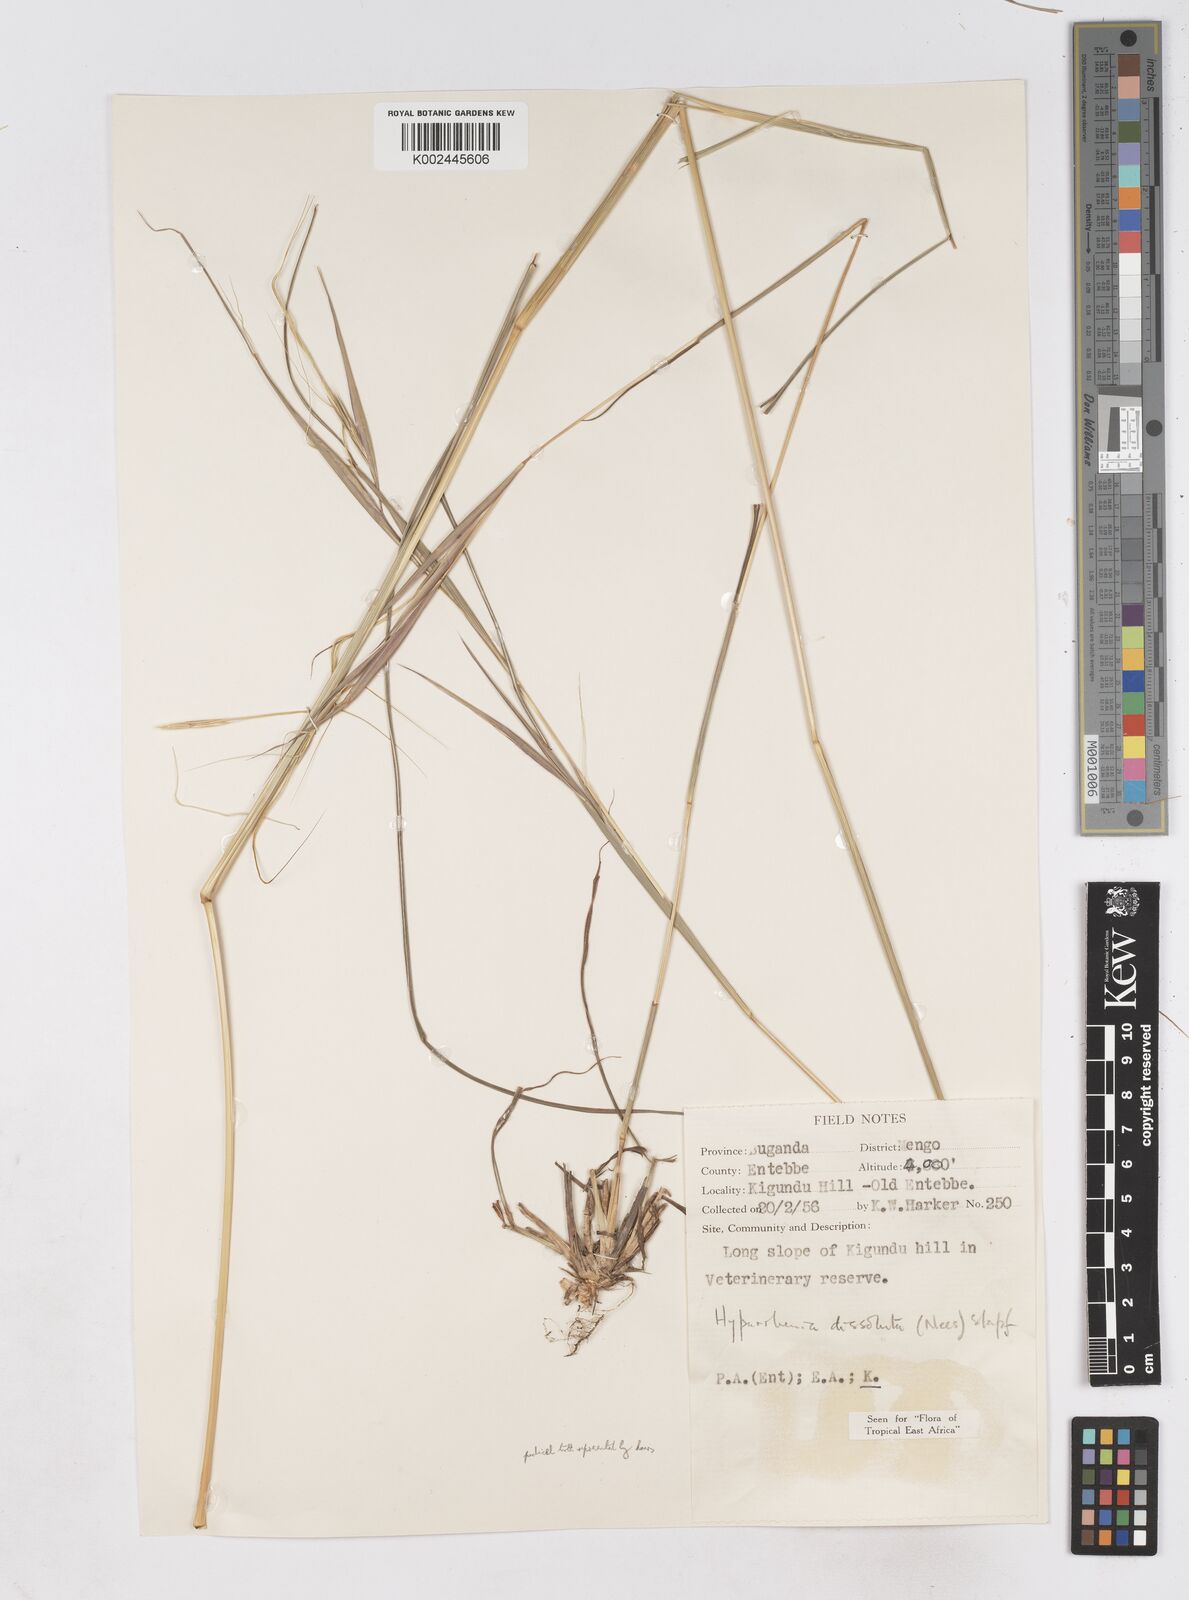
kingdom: Plantae
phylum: Tracheophyta
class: Liliopsida
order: Poales
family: Poaceae
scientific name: Poaceae
